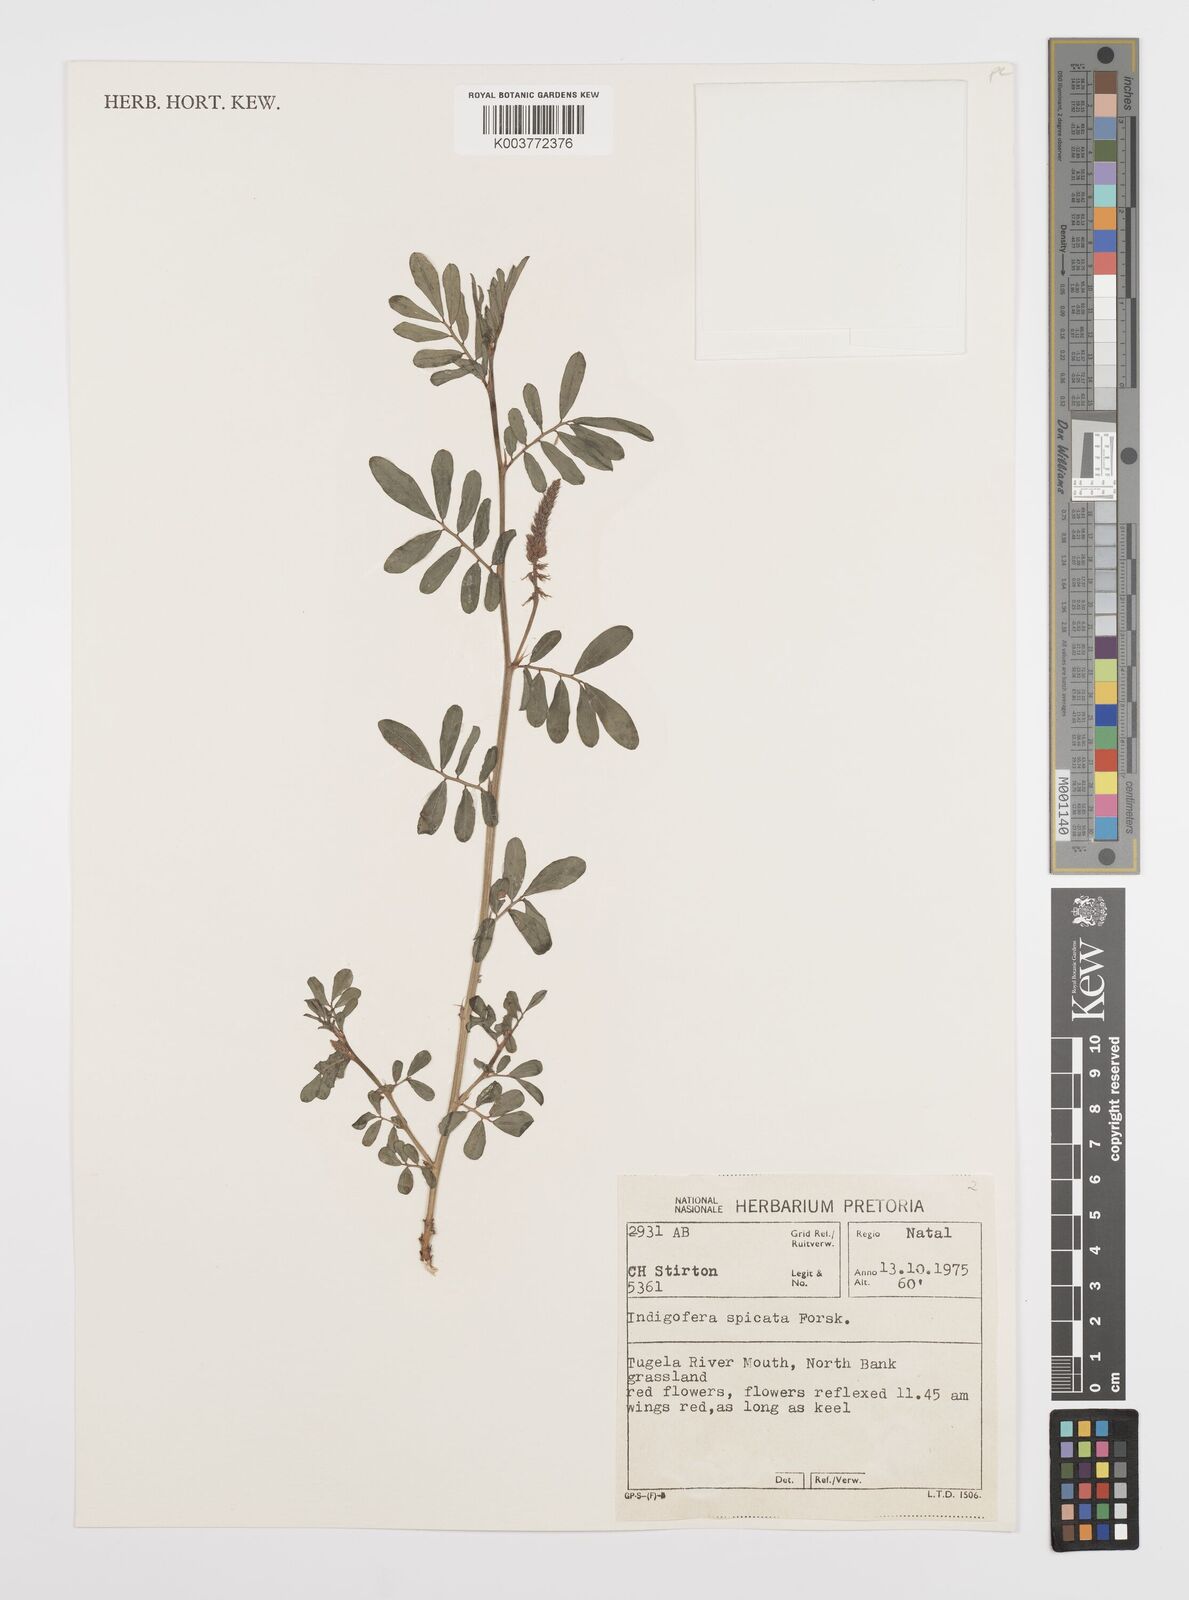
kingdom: Plantae
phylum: Tracheophyta
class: Magnoliopsida
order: Fabales
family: Fabaceae
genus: Indigofera
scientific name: Indigofera hendecaphylla
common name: Trailing indigo
